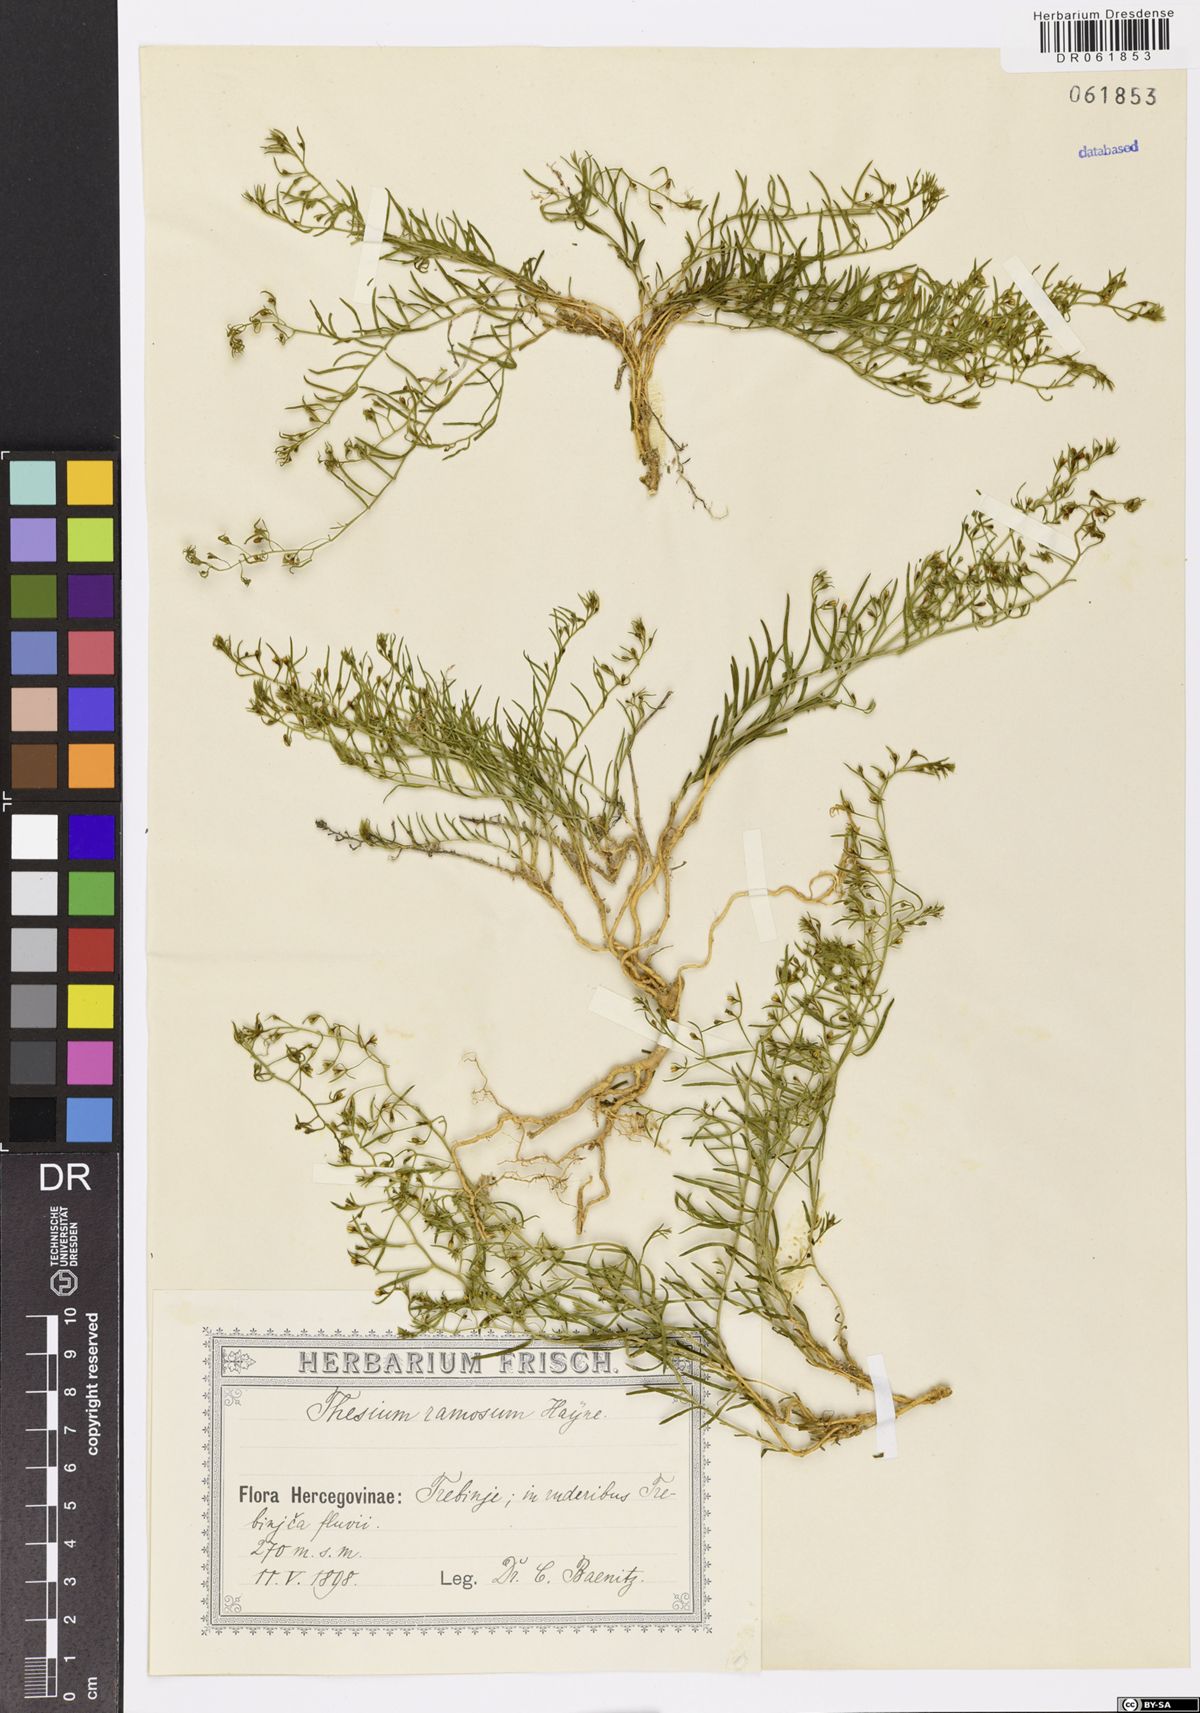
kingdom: Plantae
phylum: Tracheophyta
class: Magnoliopsida
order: Santalales
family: Thesiaceae
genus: Thesium
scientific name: Thesium ramosum
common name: Field thesium
